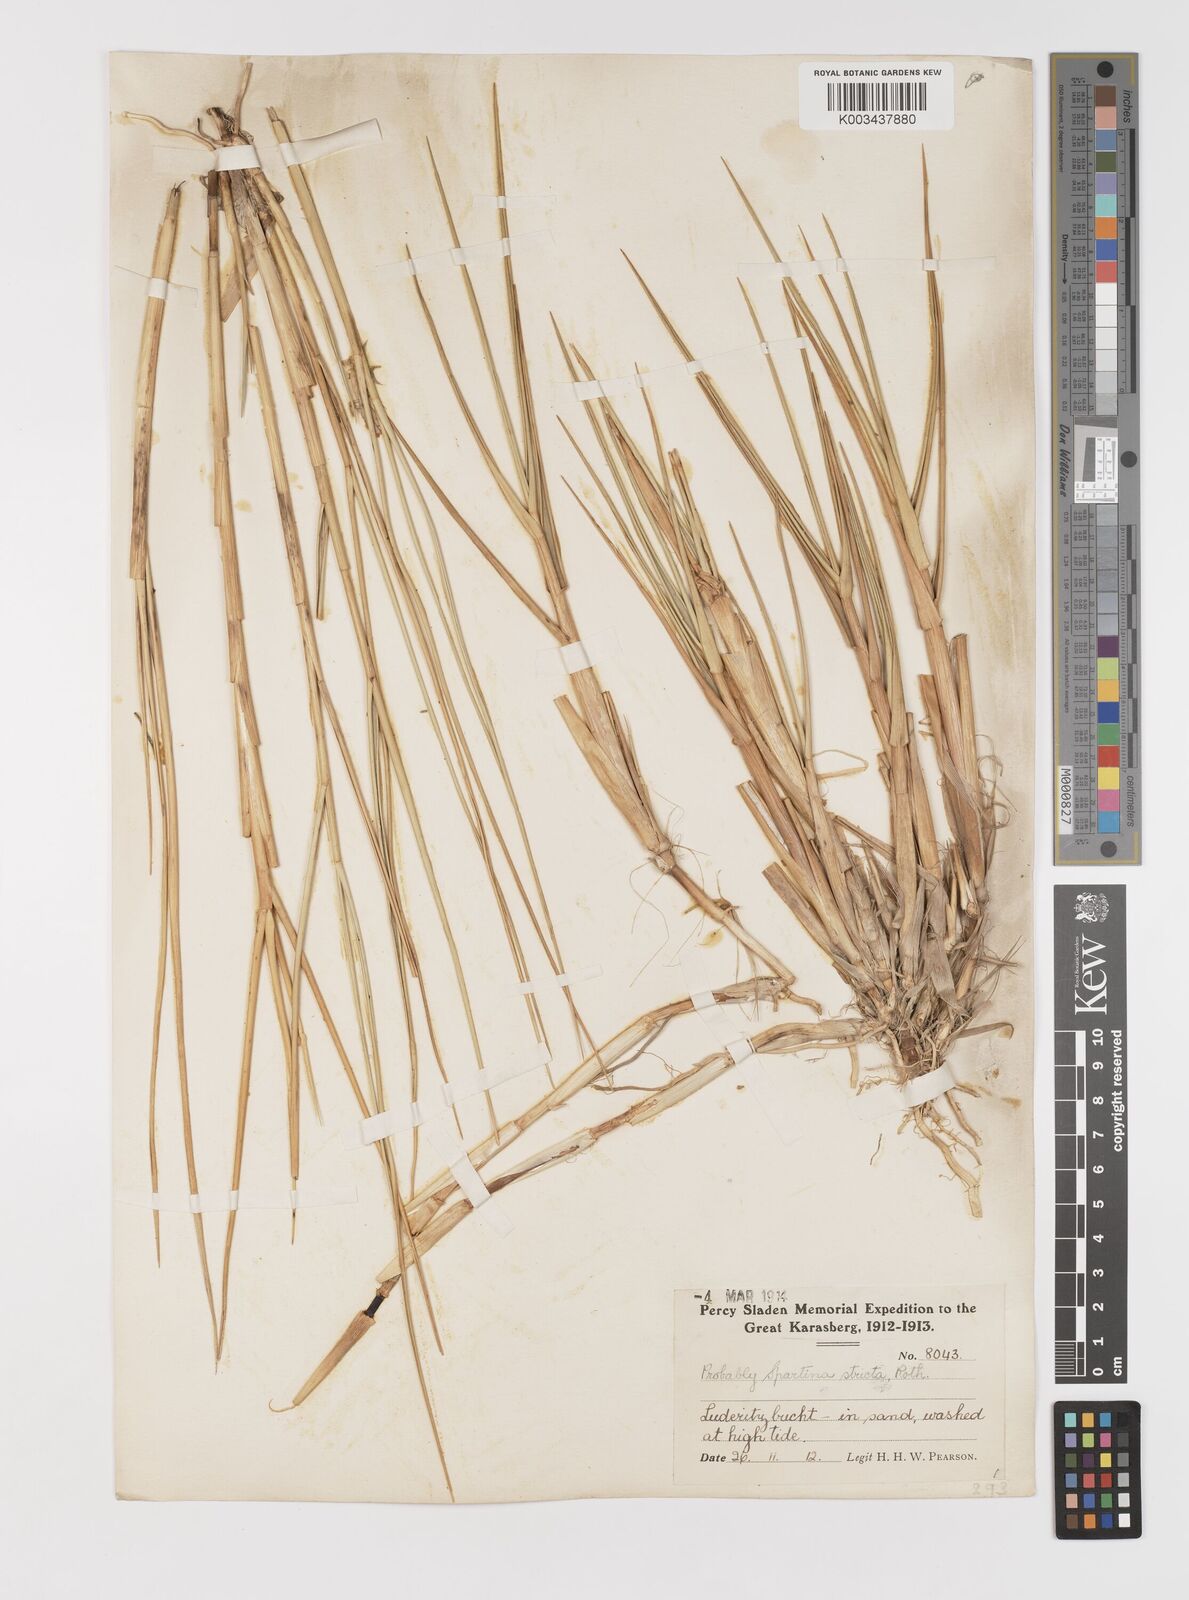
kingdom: Plantae
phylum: Tracheophyta
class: Liliopsida
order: Poales
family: Poaceae
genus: Sporobolus
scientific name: Sporobolus maritimus
